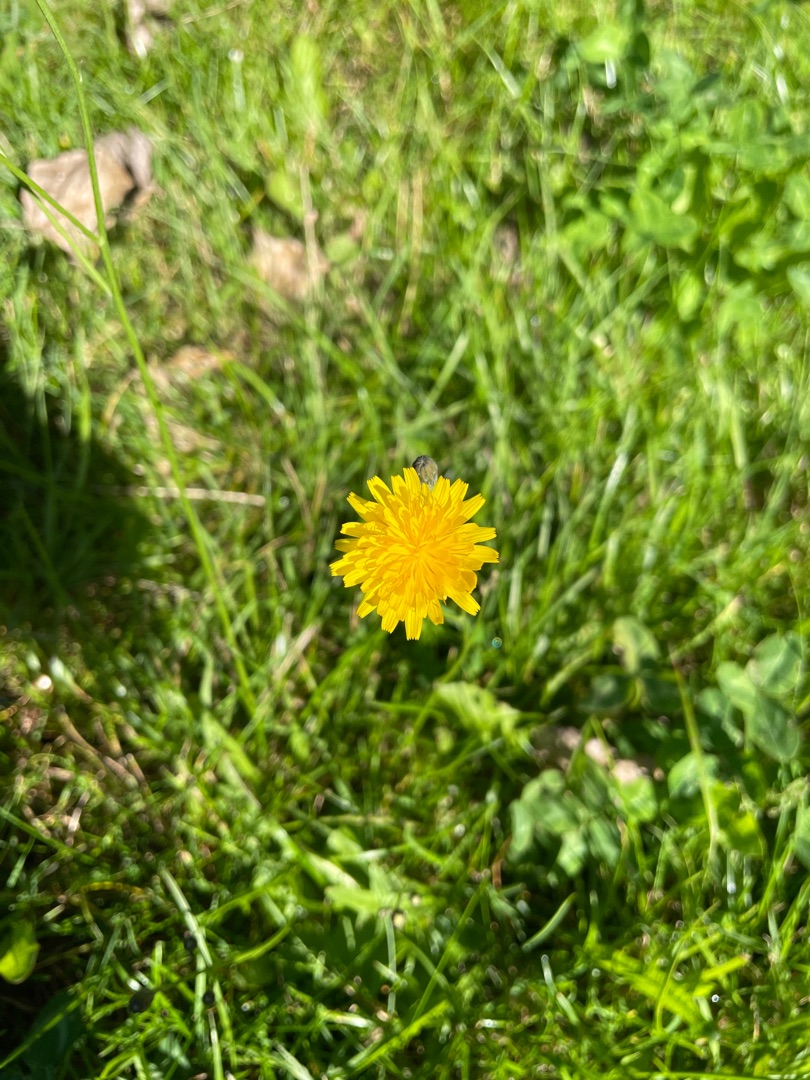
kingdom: Plantae
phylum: Tracheophyta
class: Magnoliopsida
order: Asterales
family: Asteraceae
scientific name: Asteraceae
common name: Kurvblomstfamilien
